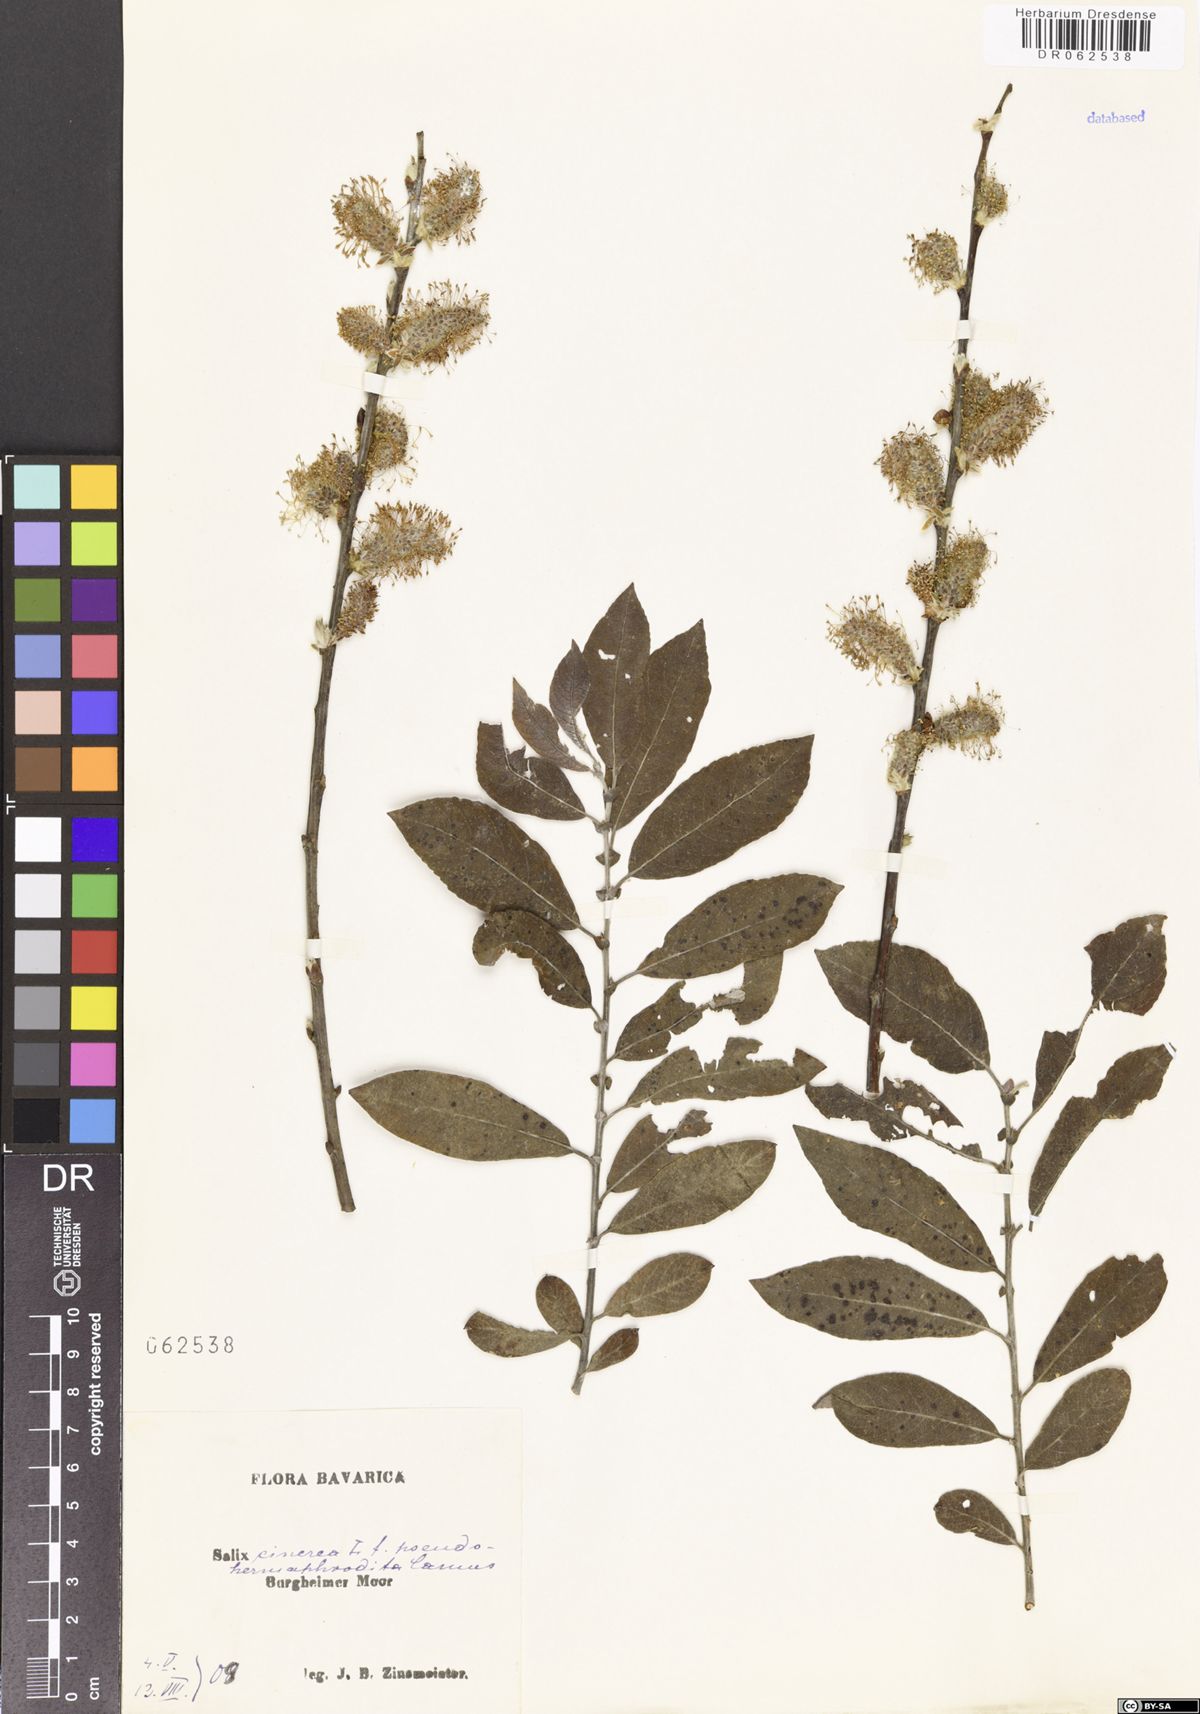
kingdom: Plantae
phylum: Tracheophyta
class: Magnoliopsida
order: Malpighiales
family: Salicaceae
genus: Salix
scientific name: Salix cinerea
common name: Common sallow
